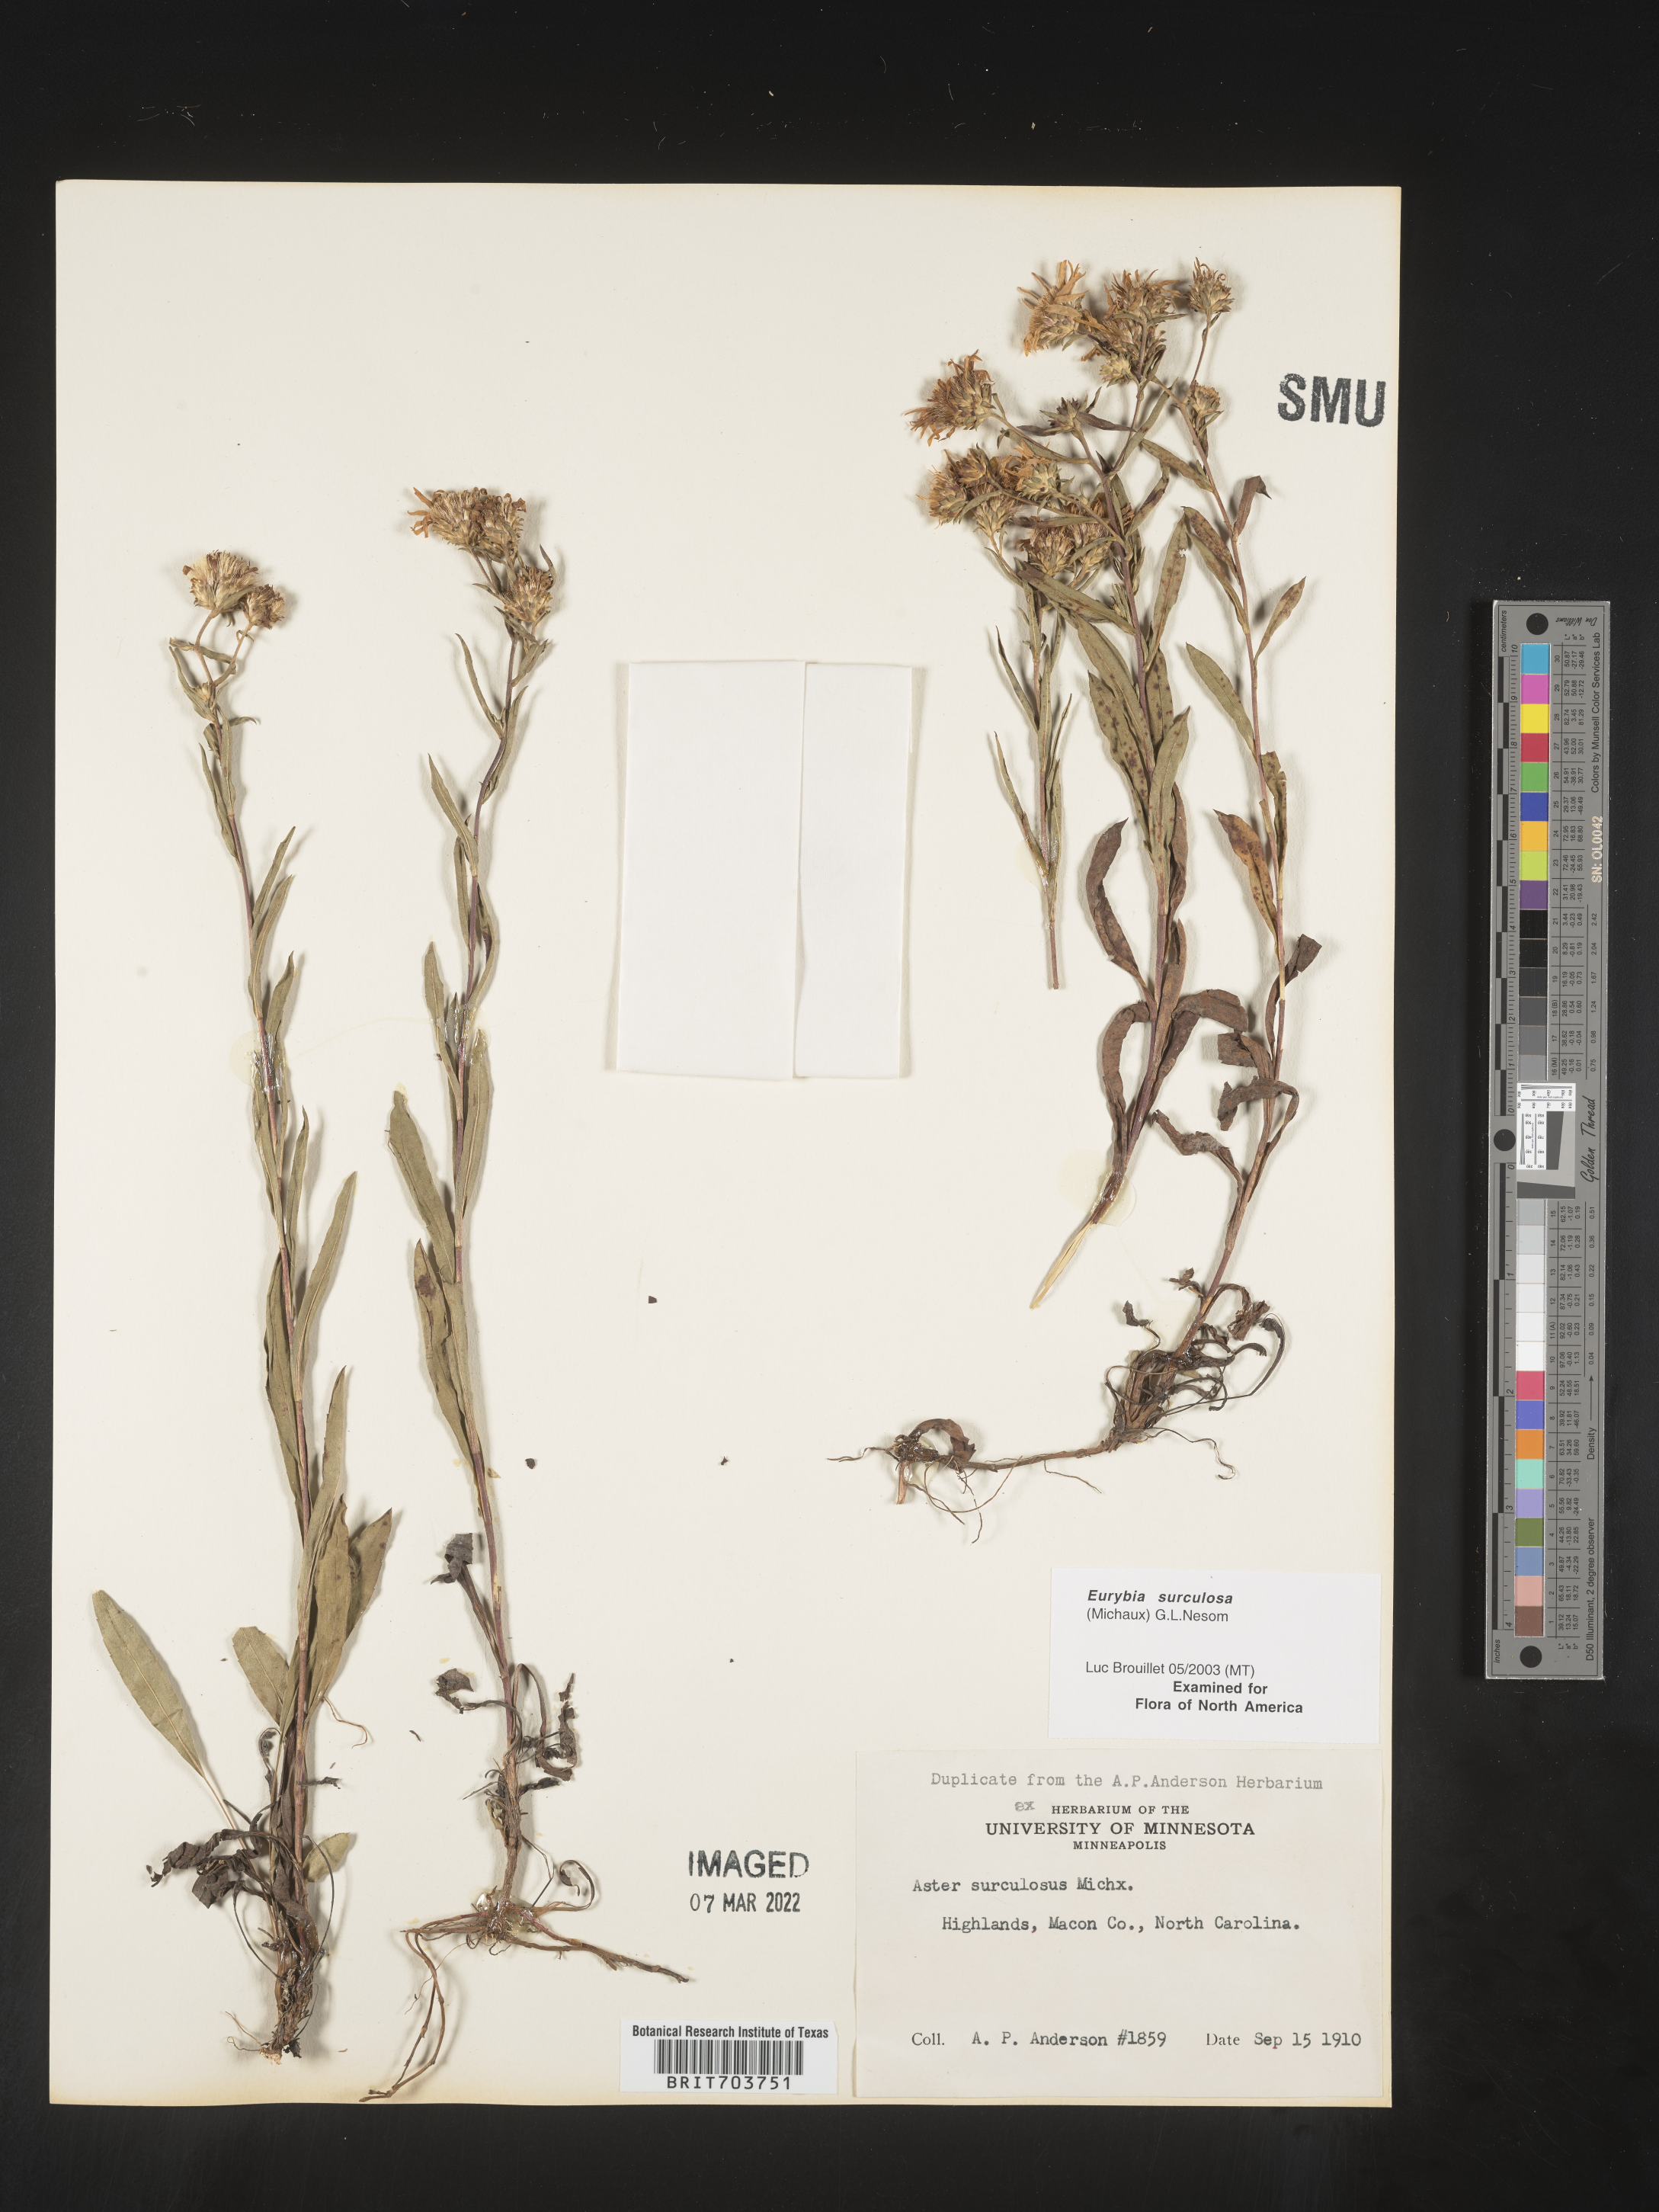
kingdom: Plantae
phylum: Tracheophyta
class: Magnoliopsida
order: Asterales
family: Asteraceae
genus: Eurybia
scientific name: Eurybia surculosa
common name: Creeping aster
